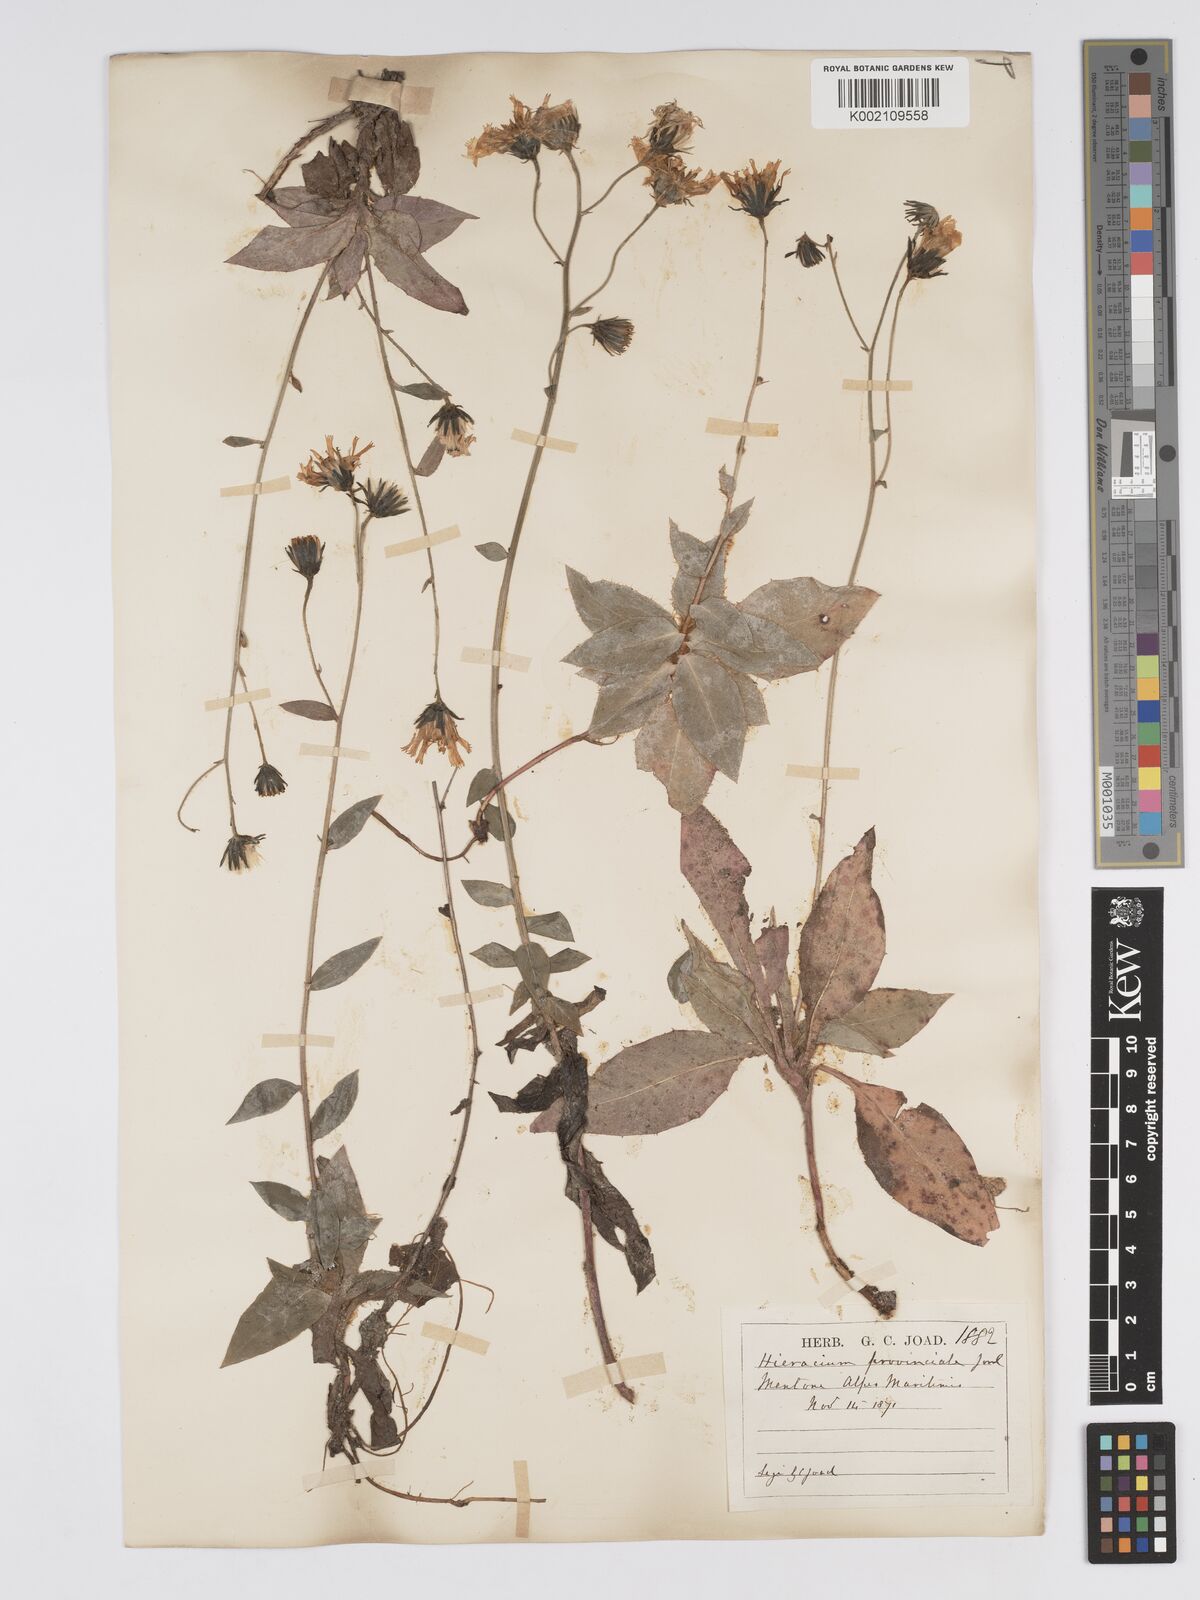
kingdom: Plantae
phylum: Tracheophyta
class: Magnoliopsida
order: Asterales
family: Asteraceae
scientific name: Asteraceae
